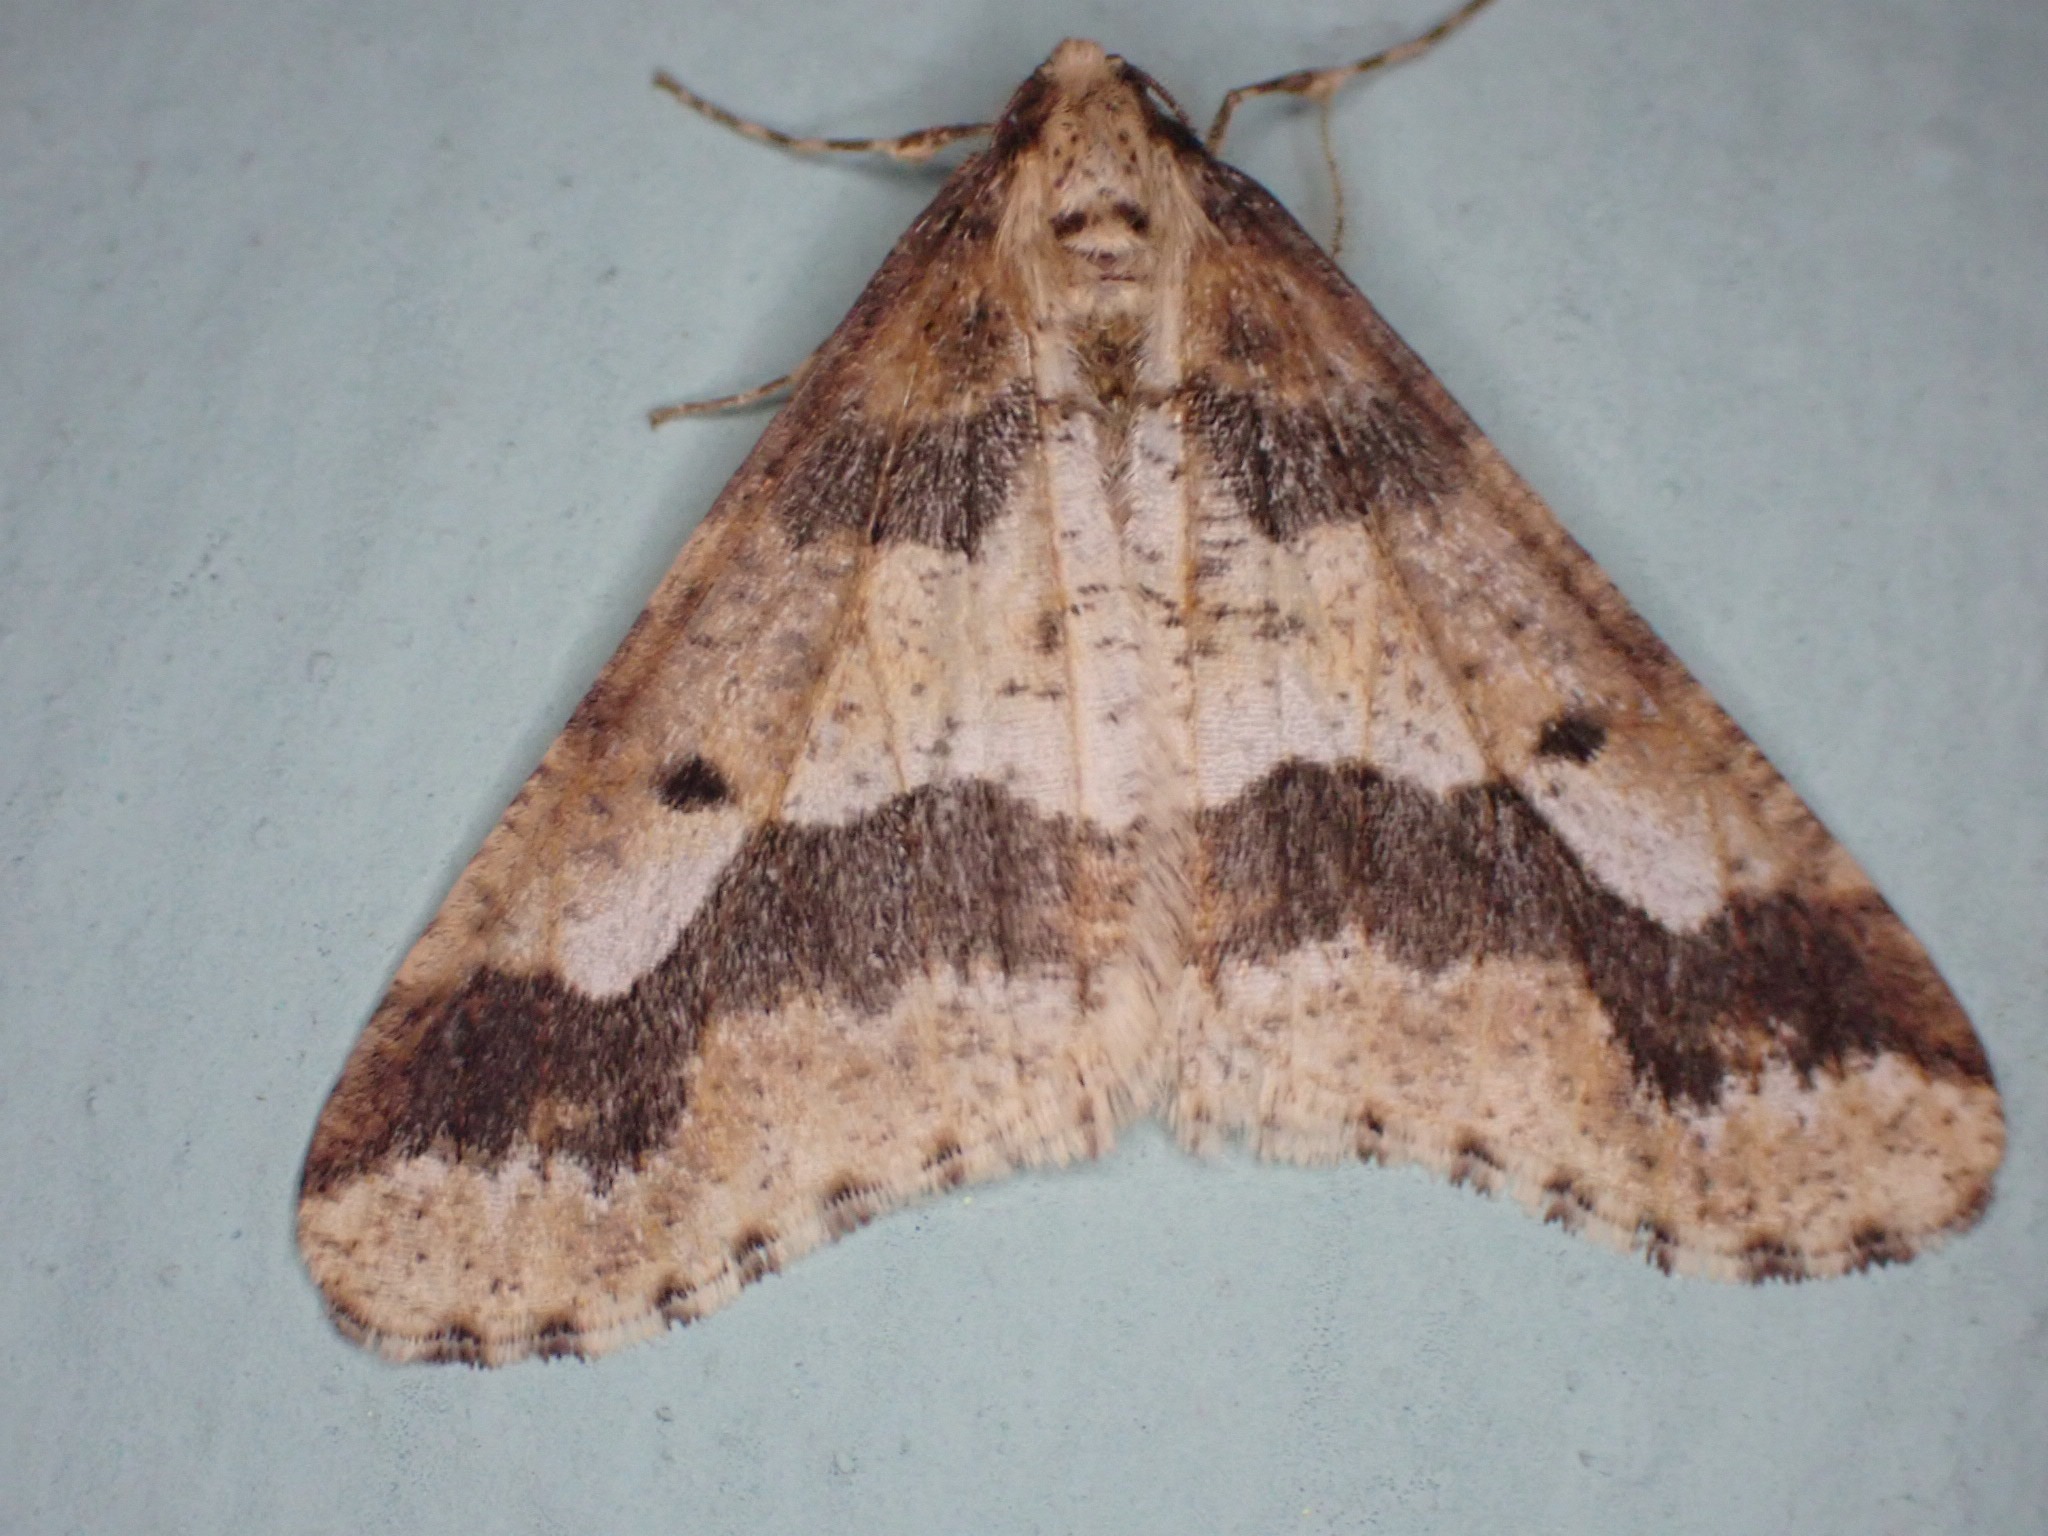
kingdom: Animalia
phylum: Arthropoda
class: Insecta
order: Lepidoptera
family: Geometridae
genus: Erannis
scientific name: Erannis defoliaria
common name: Stor frostmåler
